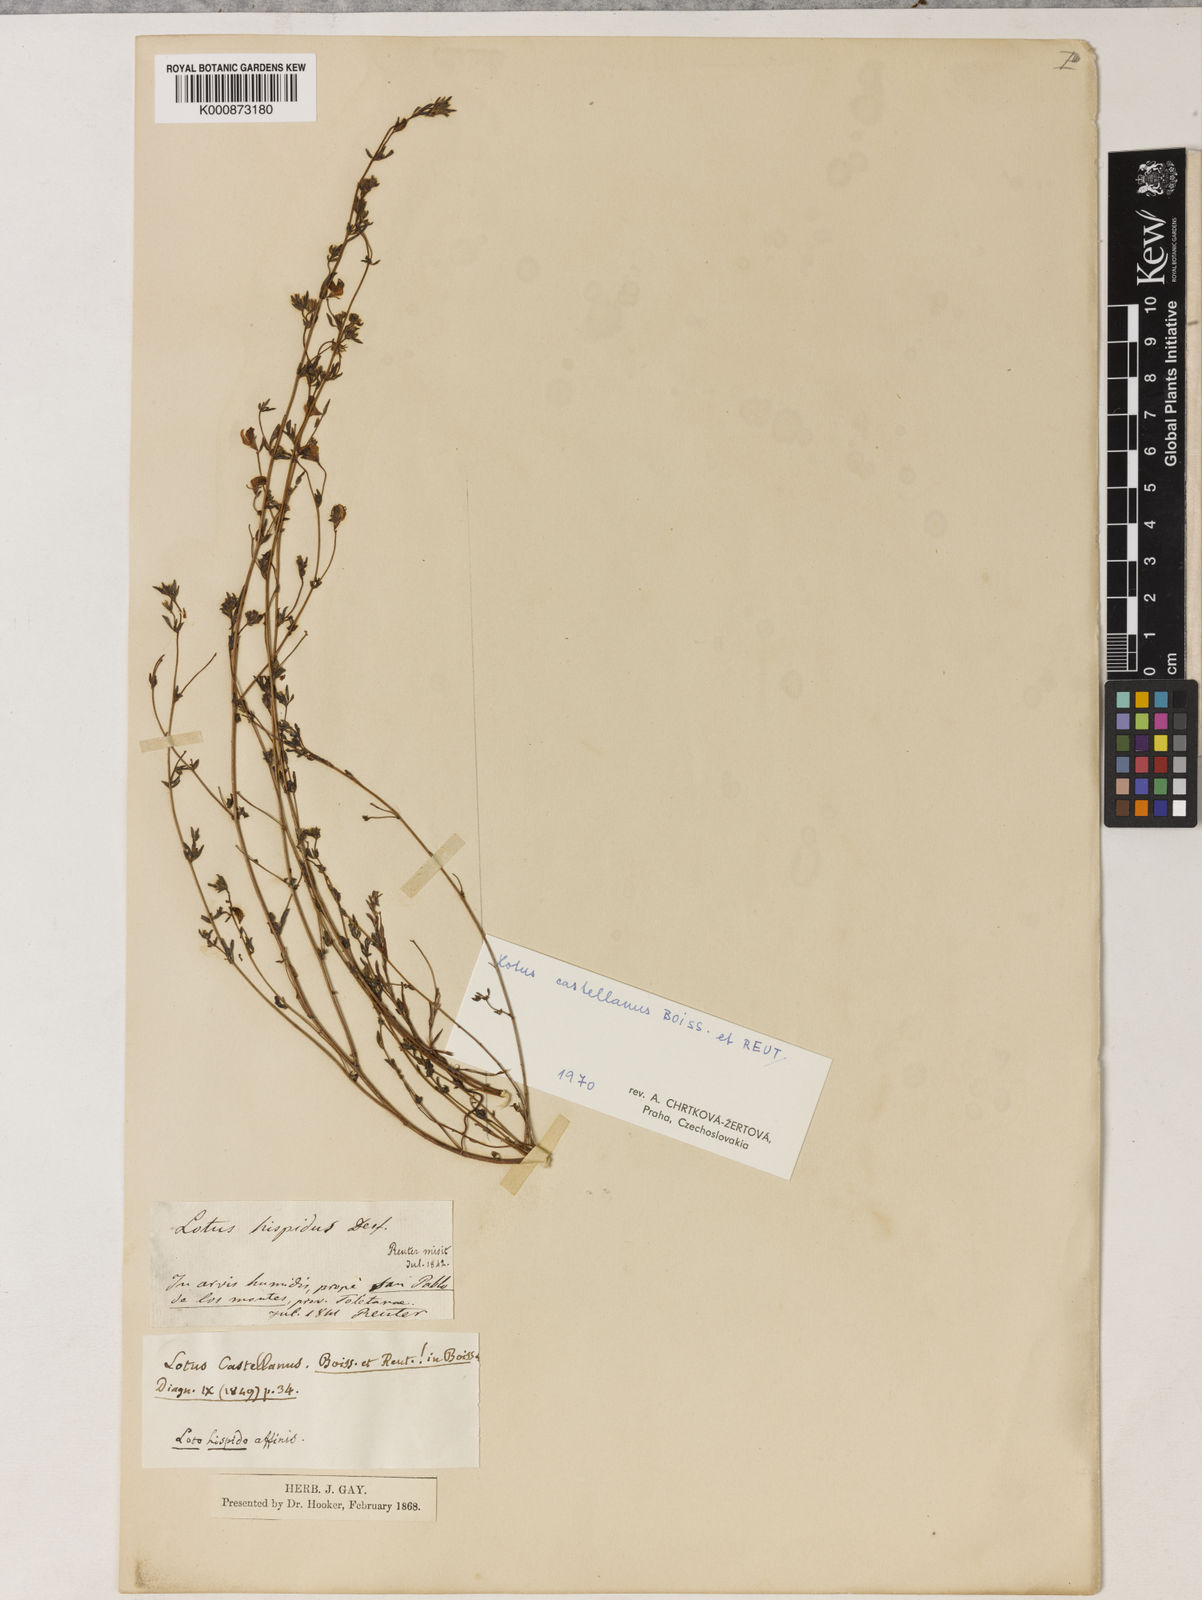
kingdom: Plantae
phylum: Tracheophyta
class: Magnoliopsida
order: Fabales
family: Fabaceae
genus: Lotus
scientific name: Lotus castellanus
